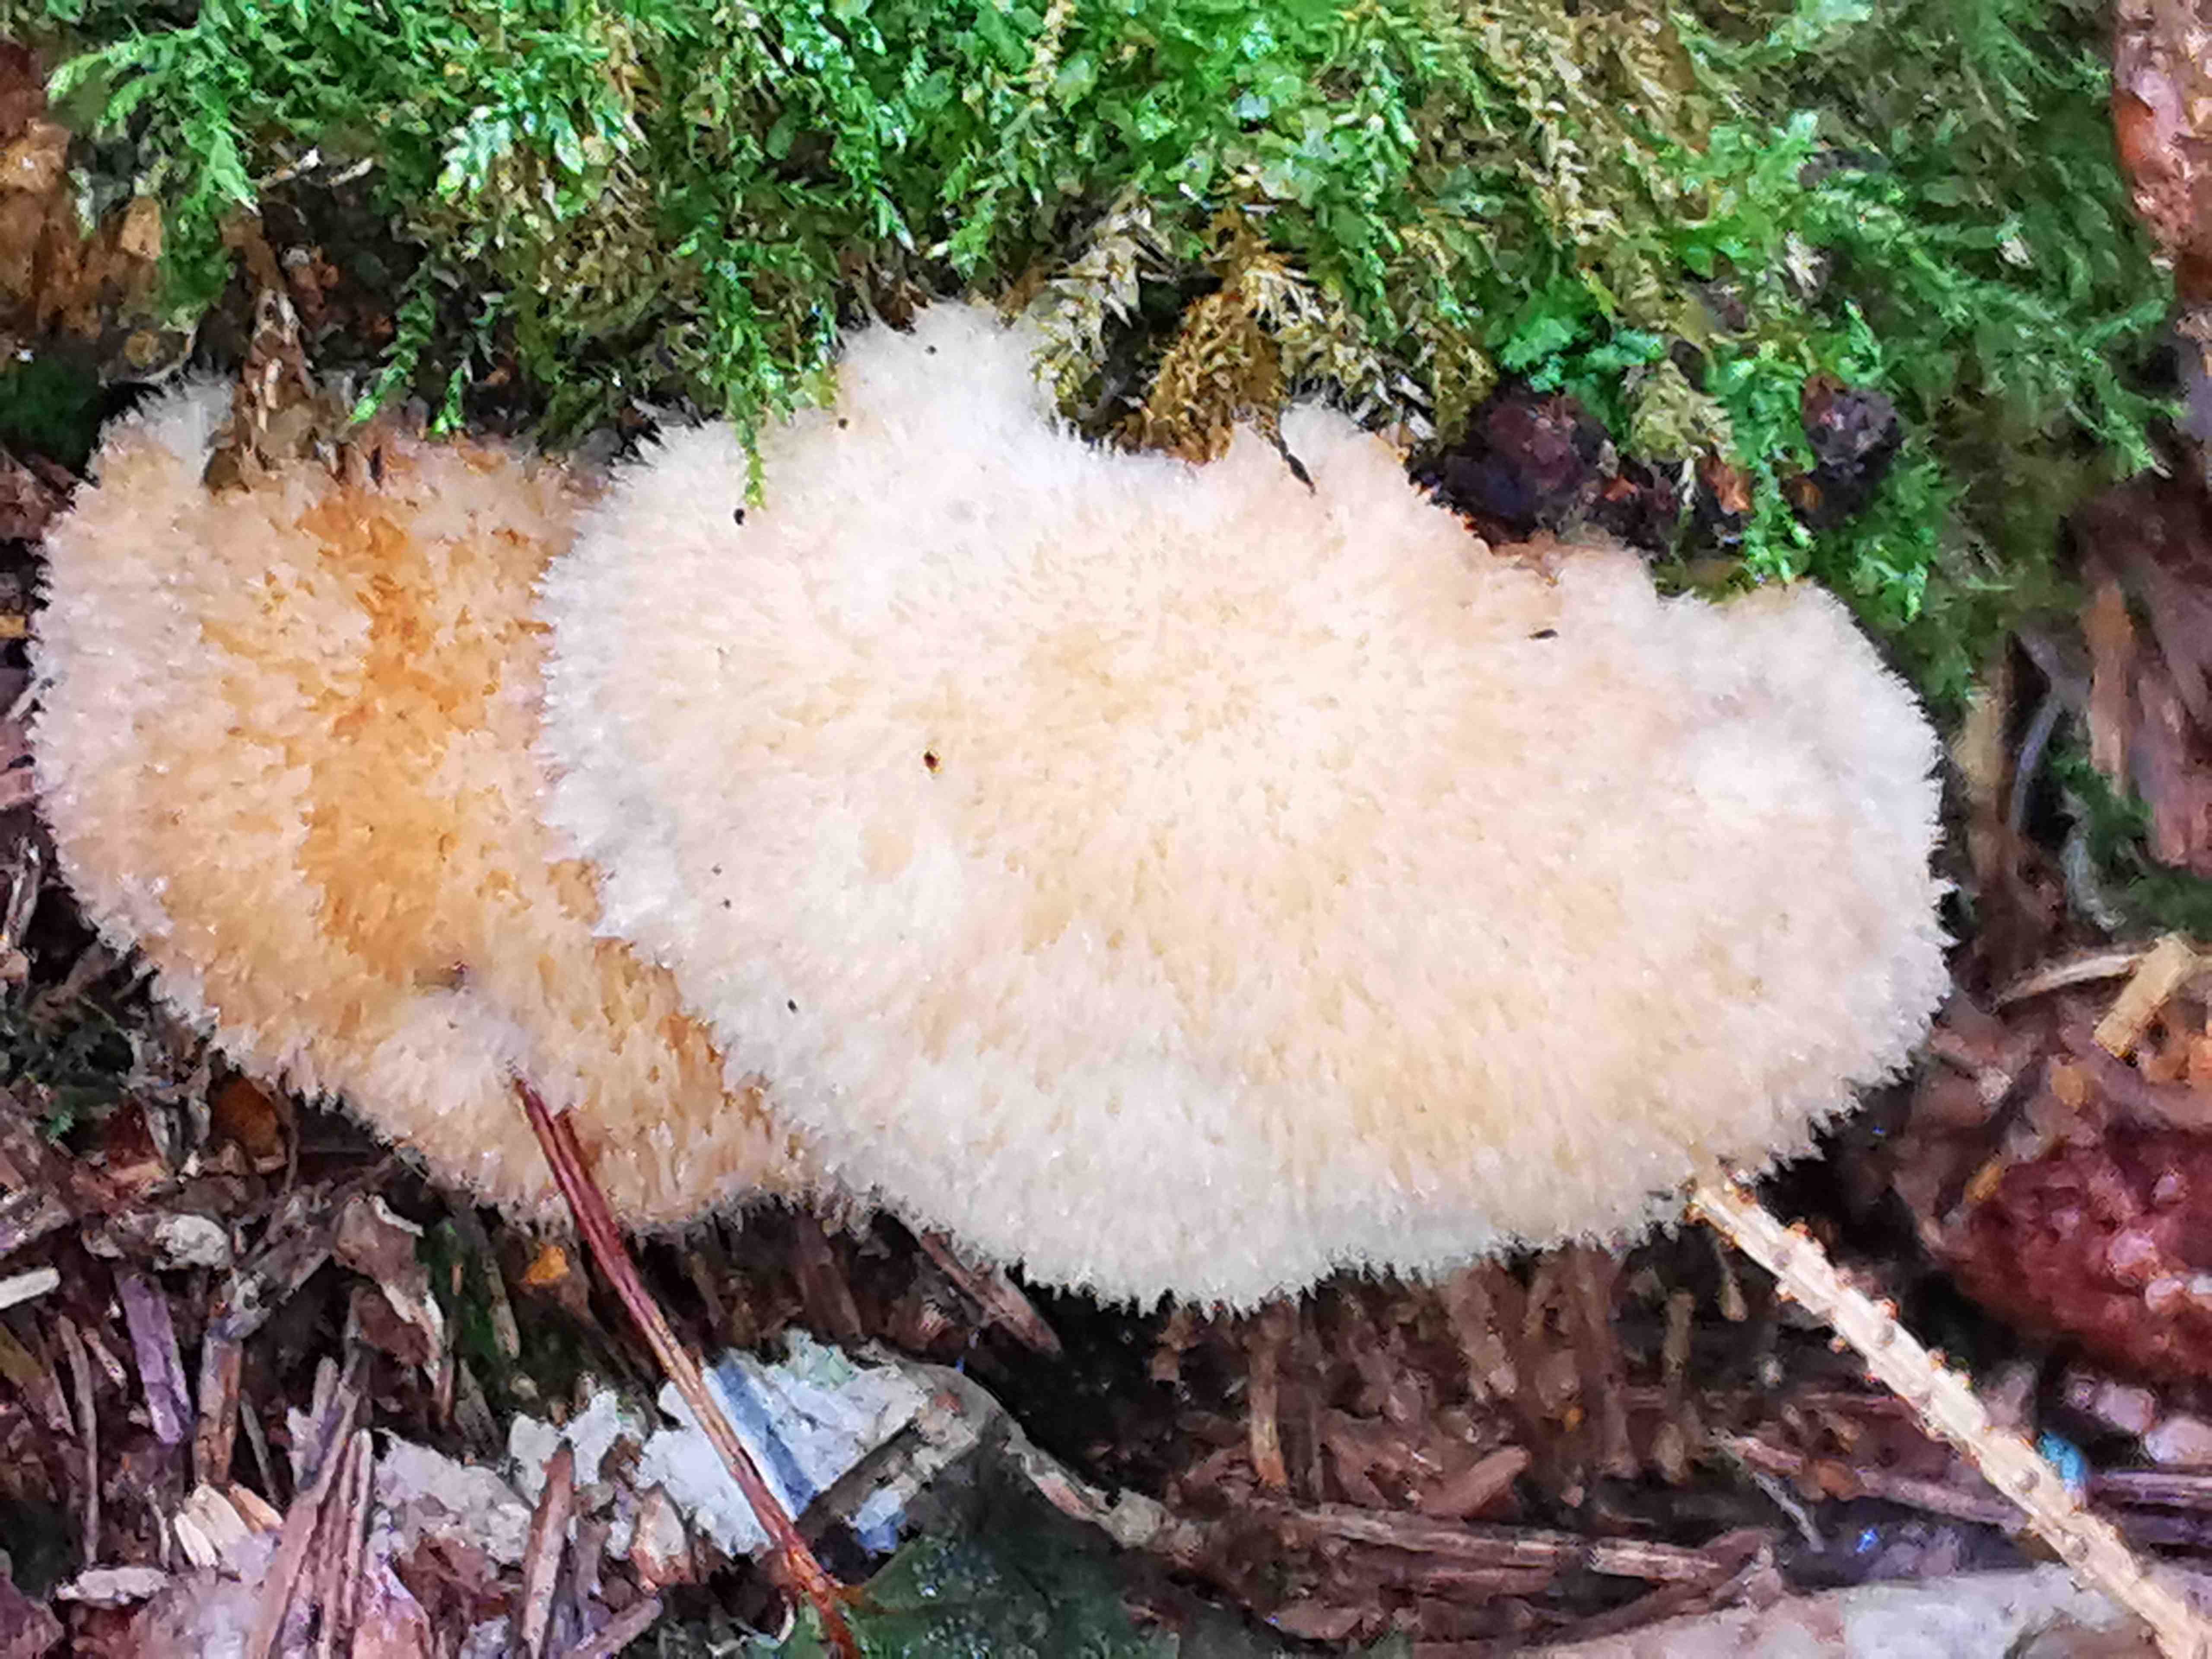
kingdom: Fungi
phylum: Basidiomycota
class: Agaricomycetes
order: Polyporales
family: Dacryobolaceae
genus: Postia
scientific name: Postia ptychogaster
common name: støvende kødporesvamp
